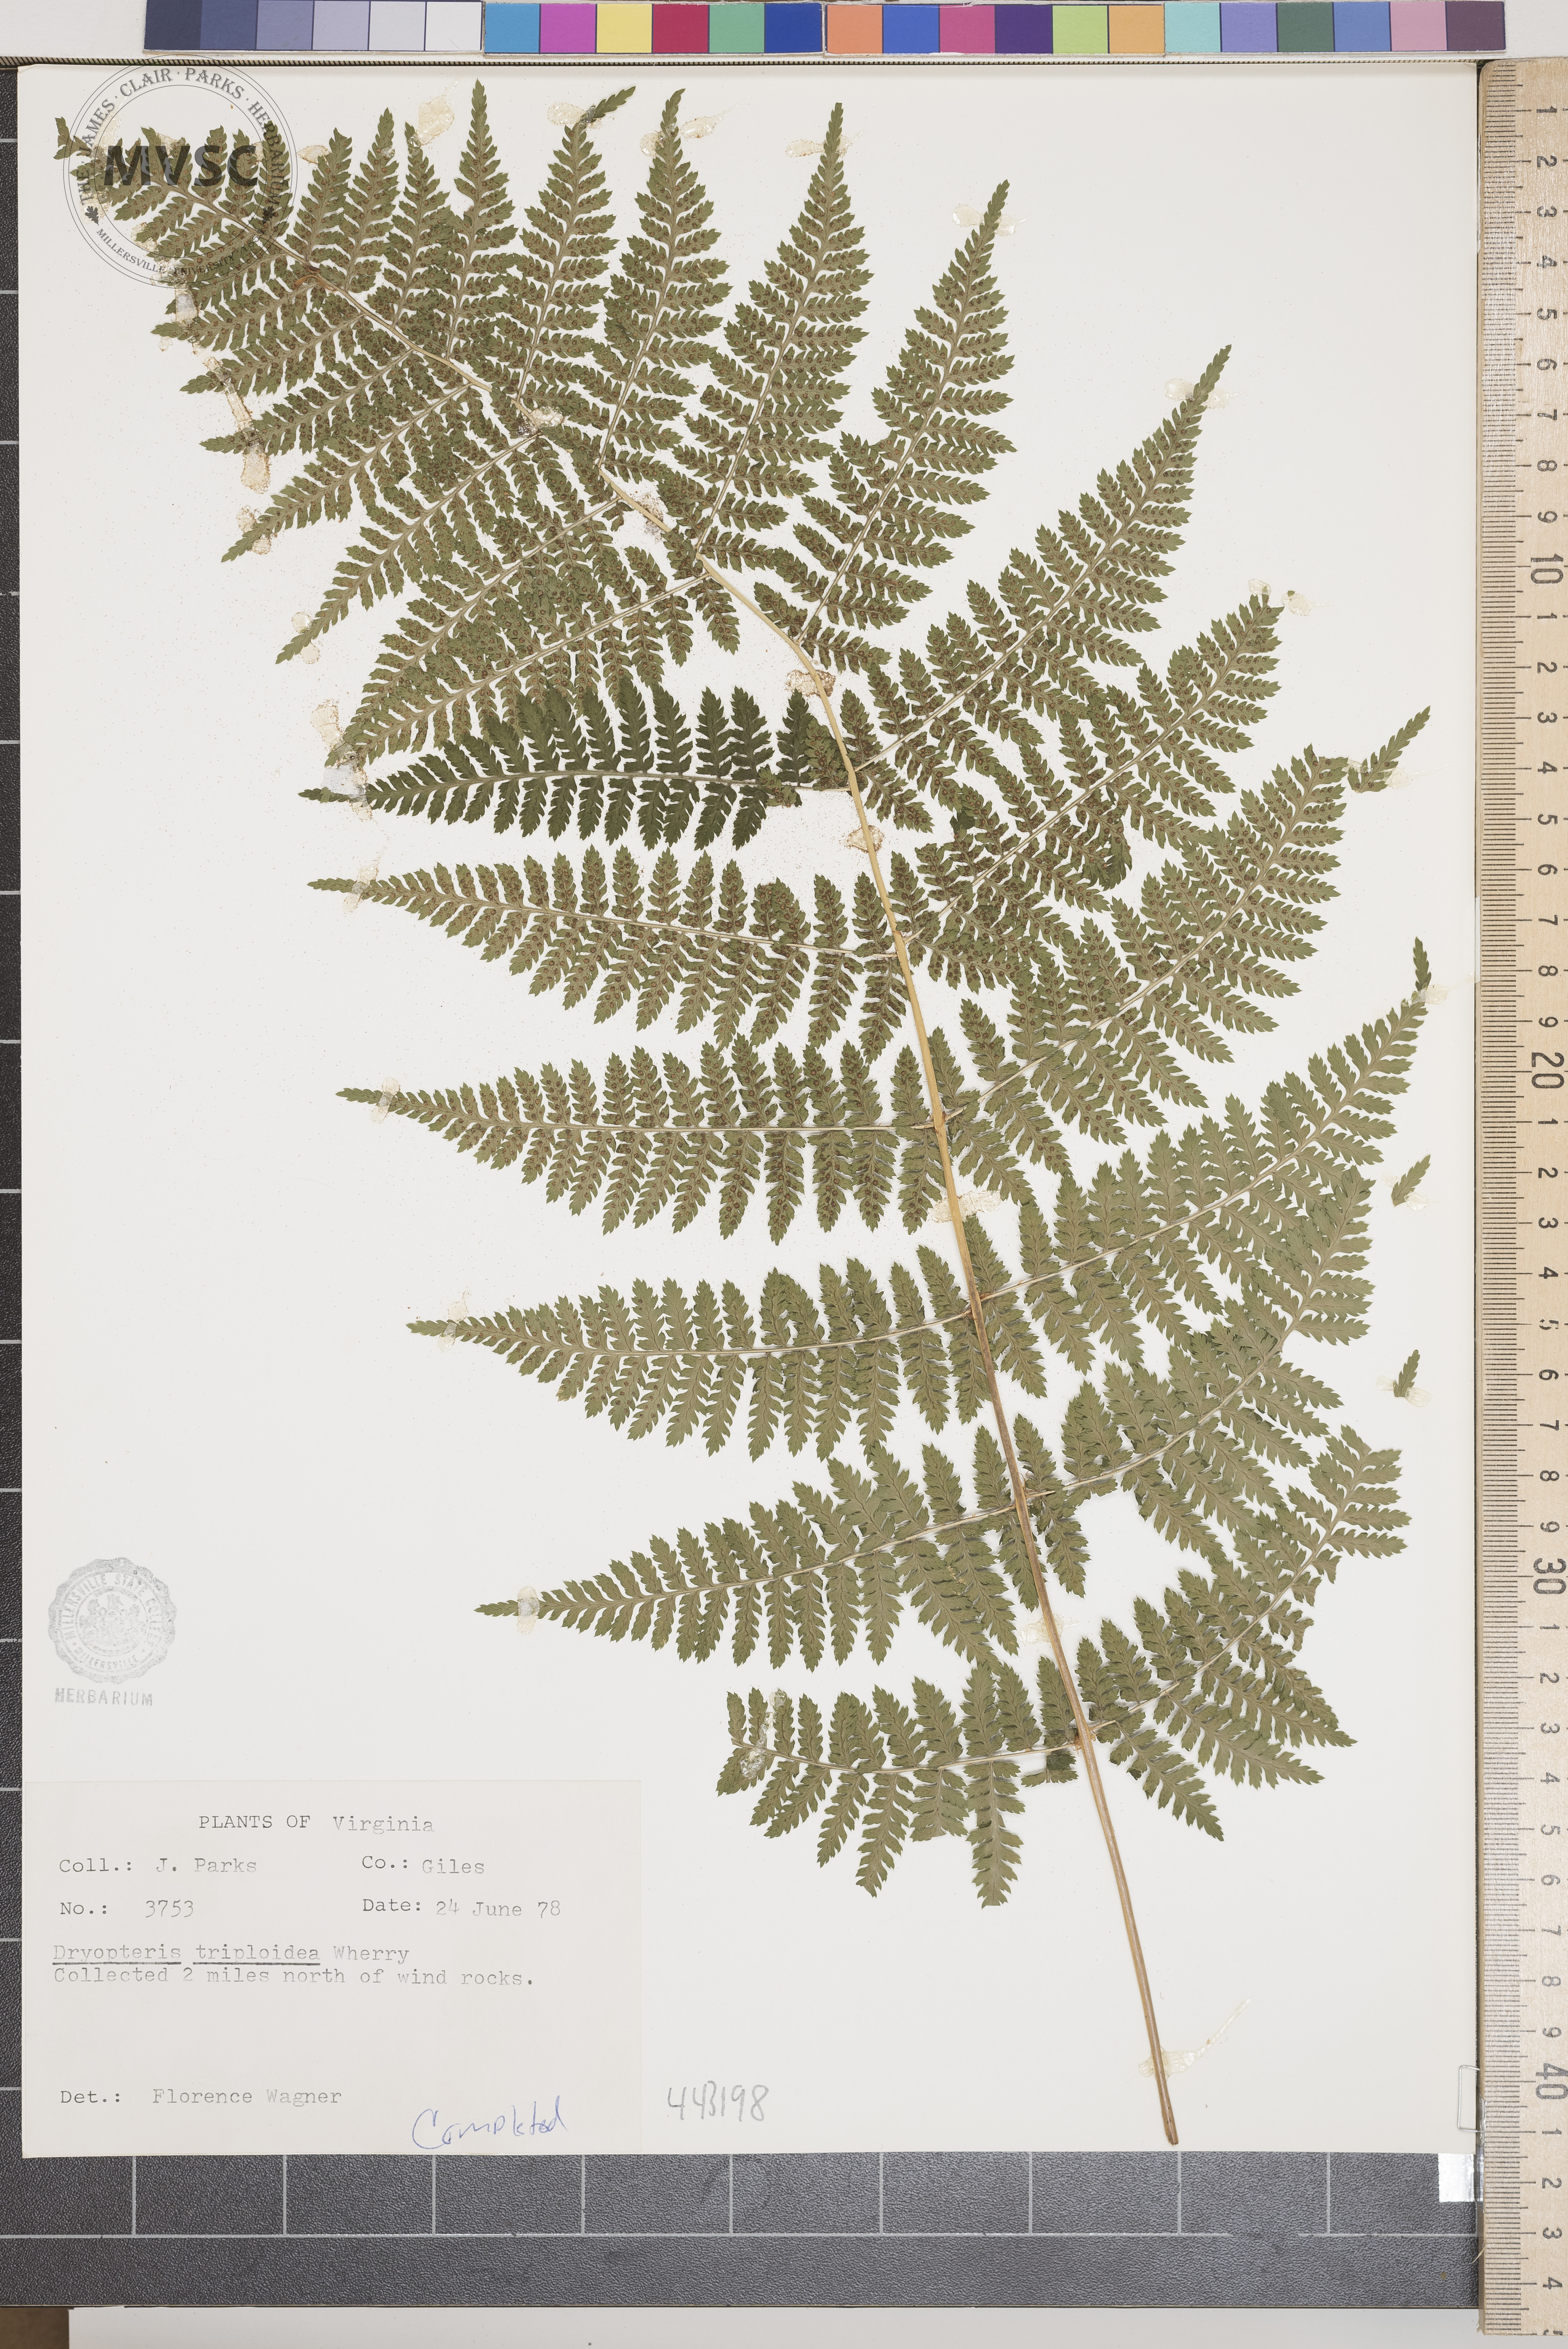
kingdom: Plantae
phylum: Tracheophyta
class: Polypodiopsida
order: Polypodiales
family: Dryopteridaceae
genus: Dryopteris
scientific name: Dryopteris triploidea
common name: Fruitful wood fern
